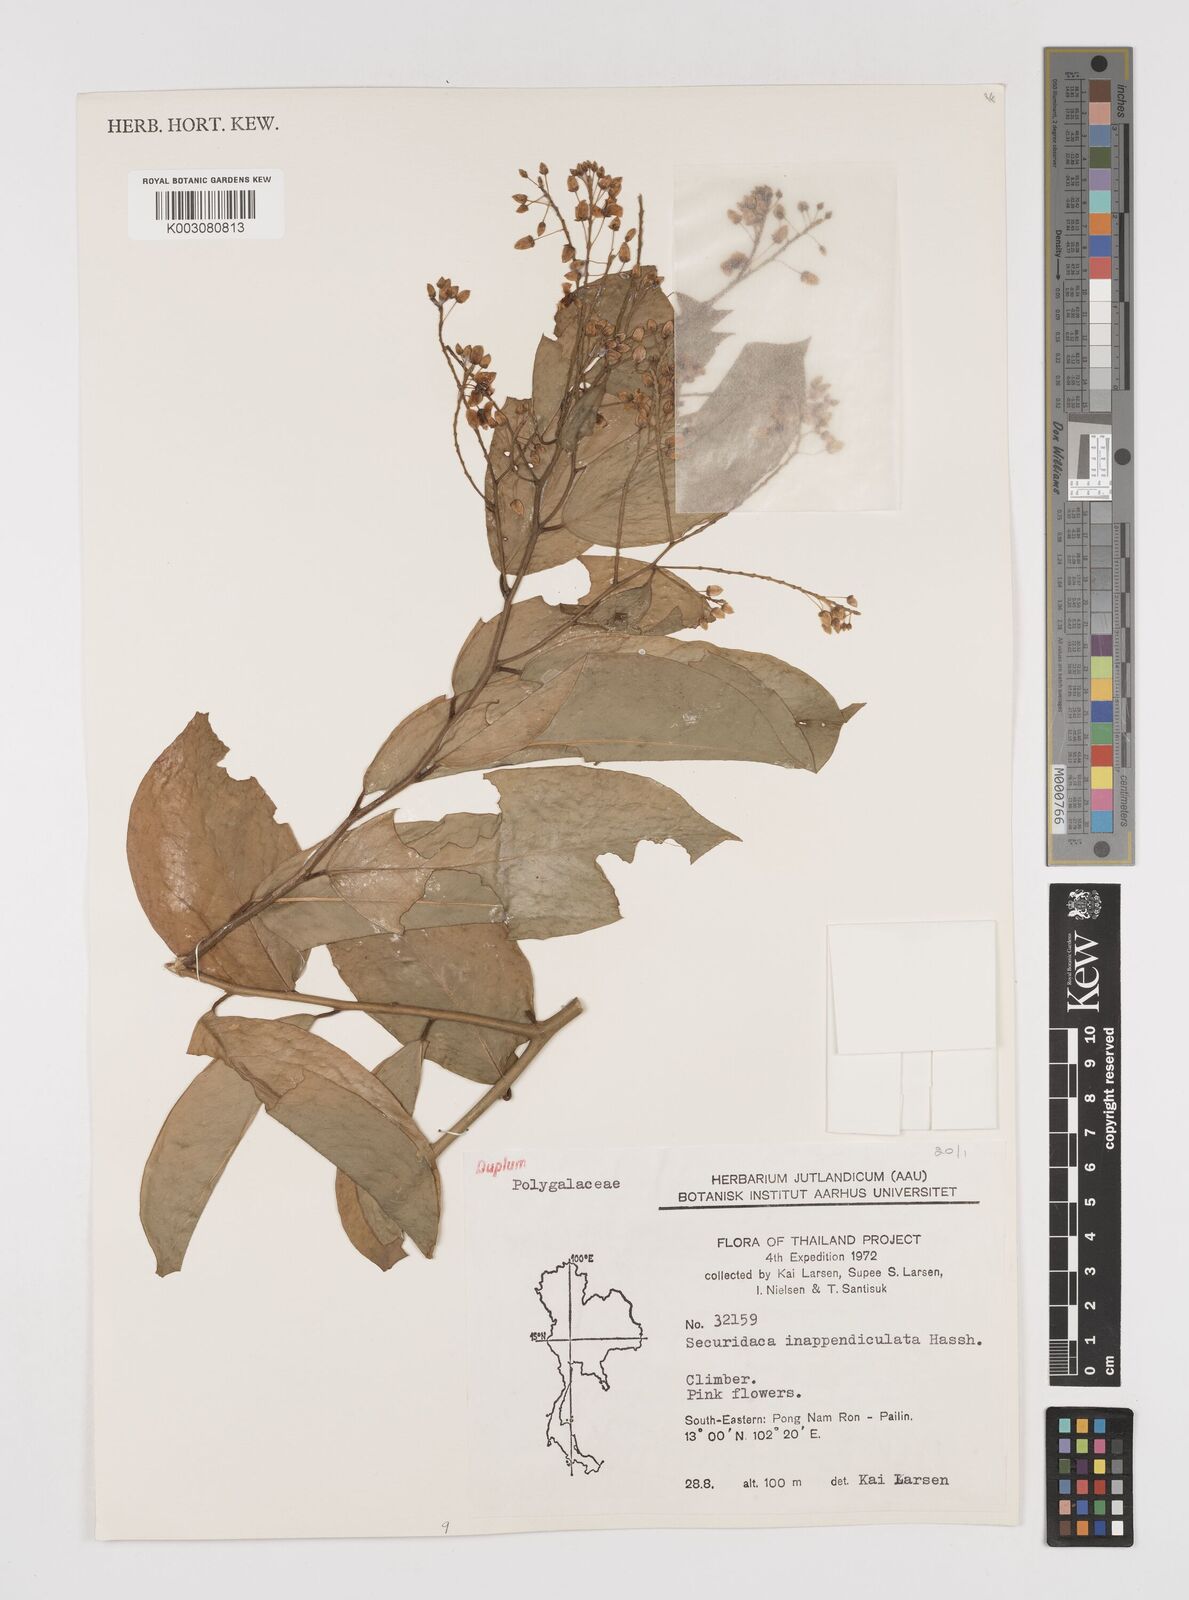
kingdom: Plantae
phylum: Tracheophyta
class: Magnoliopsida
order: Fabales
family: Polygalaceae
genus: Securidaca
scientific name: Securidaca inappendiculata
